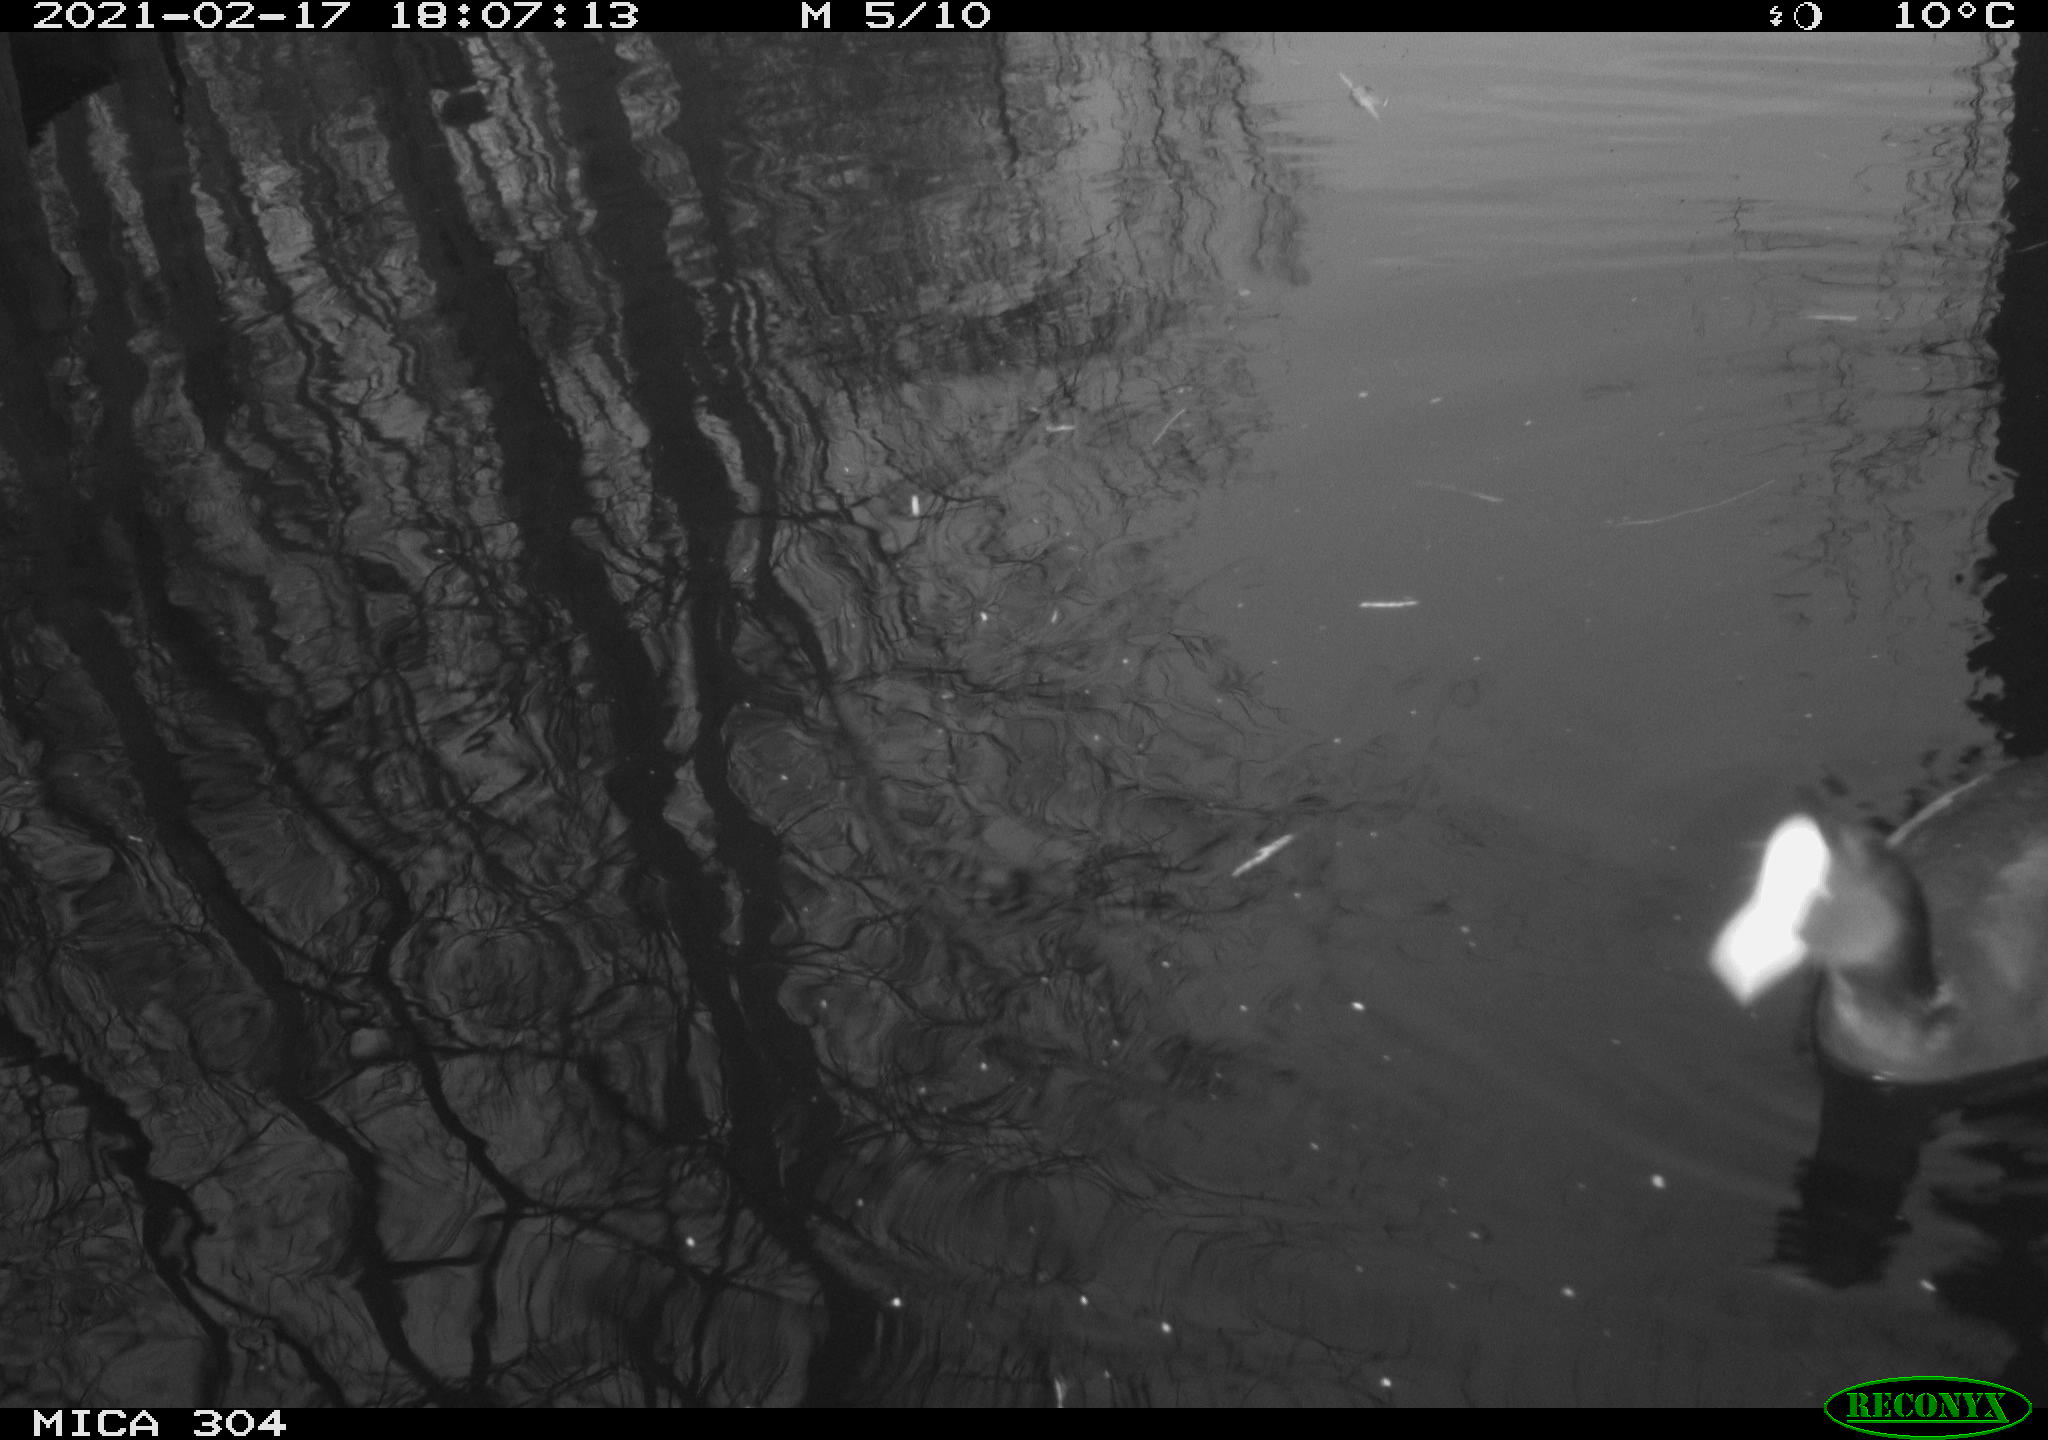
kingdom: Animalia
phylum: Chordata
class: Aves
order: Gruiformes
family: Rallidae
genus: Fulica
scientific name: Fulica atra
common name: Eurasian coot
